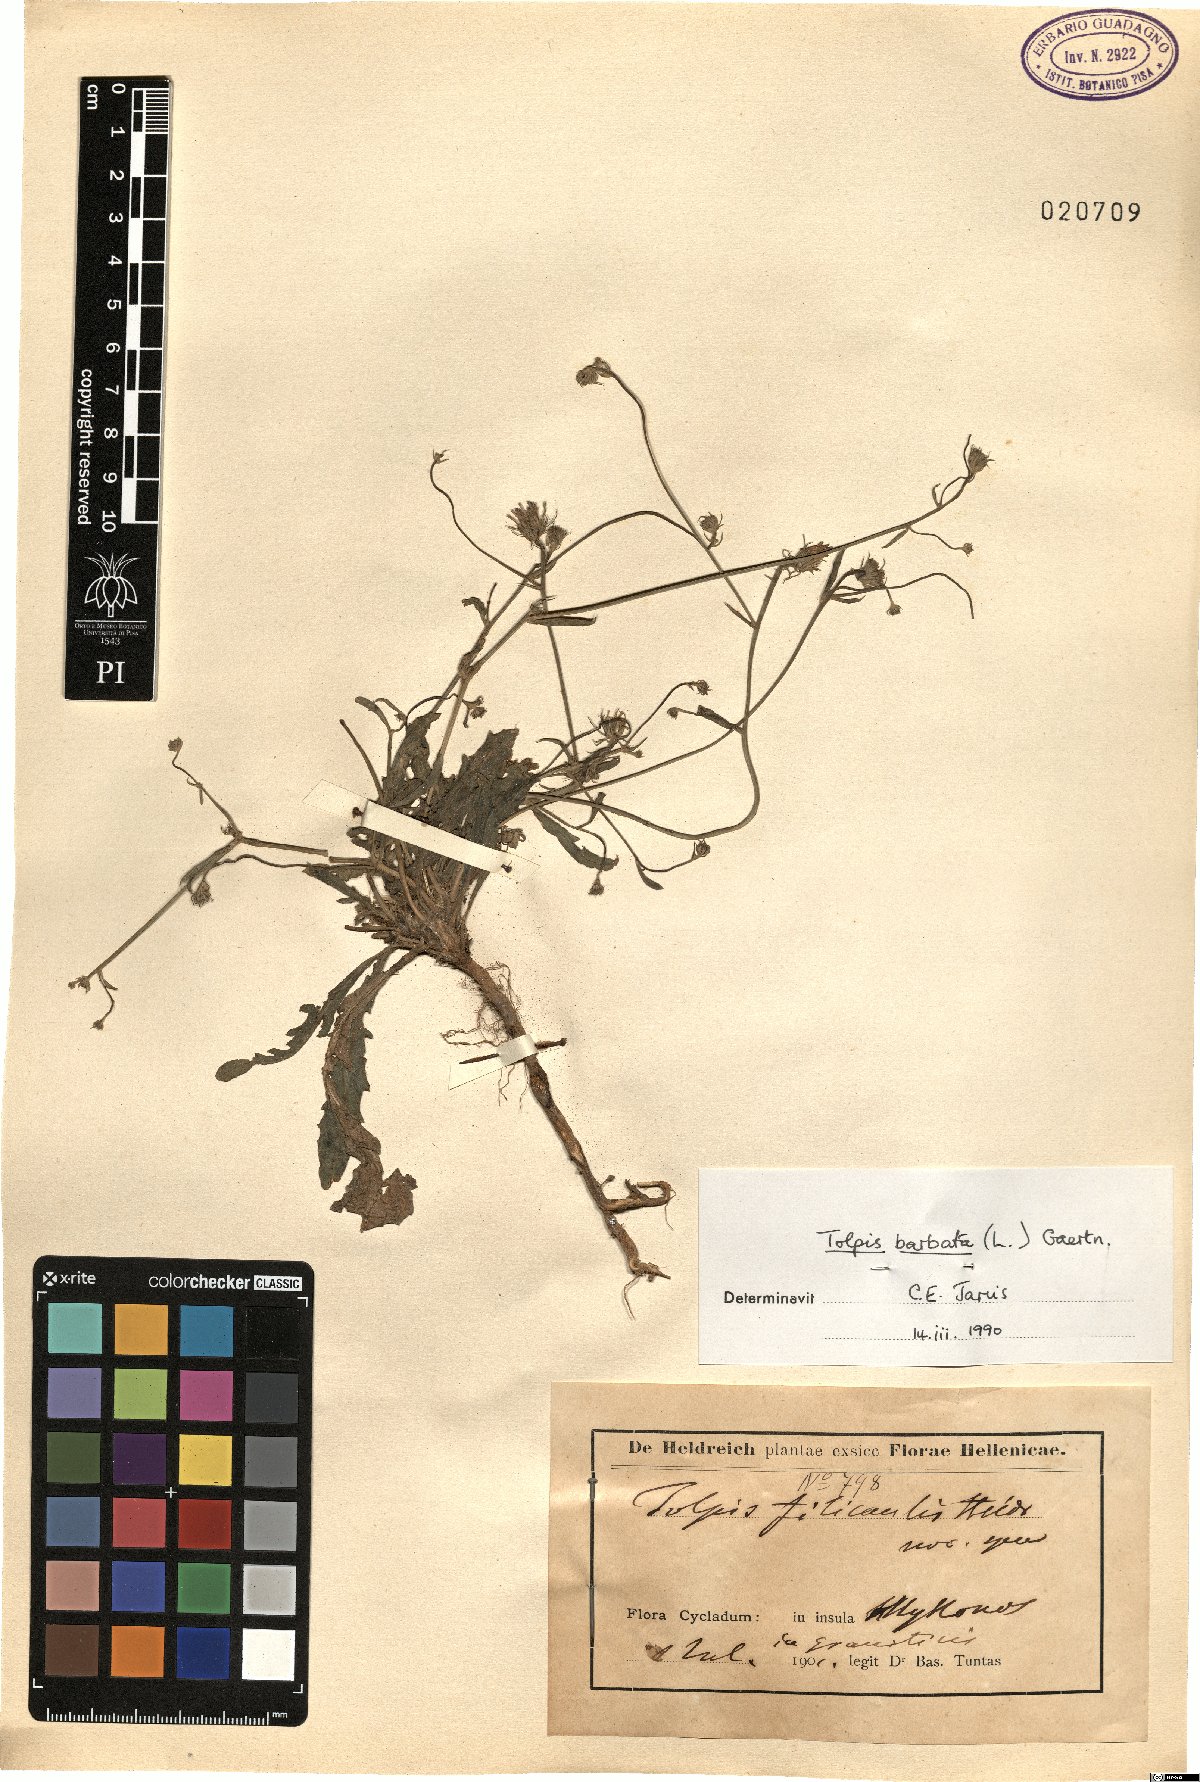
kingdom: Plantae
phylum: Tracheophyta
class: Magnoliopsida
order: Asterales
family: Asteraceae
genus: Tolpis
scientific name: Tolpis barbata
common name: Yellow hawkweed
